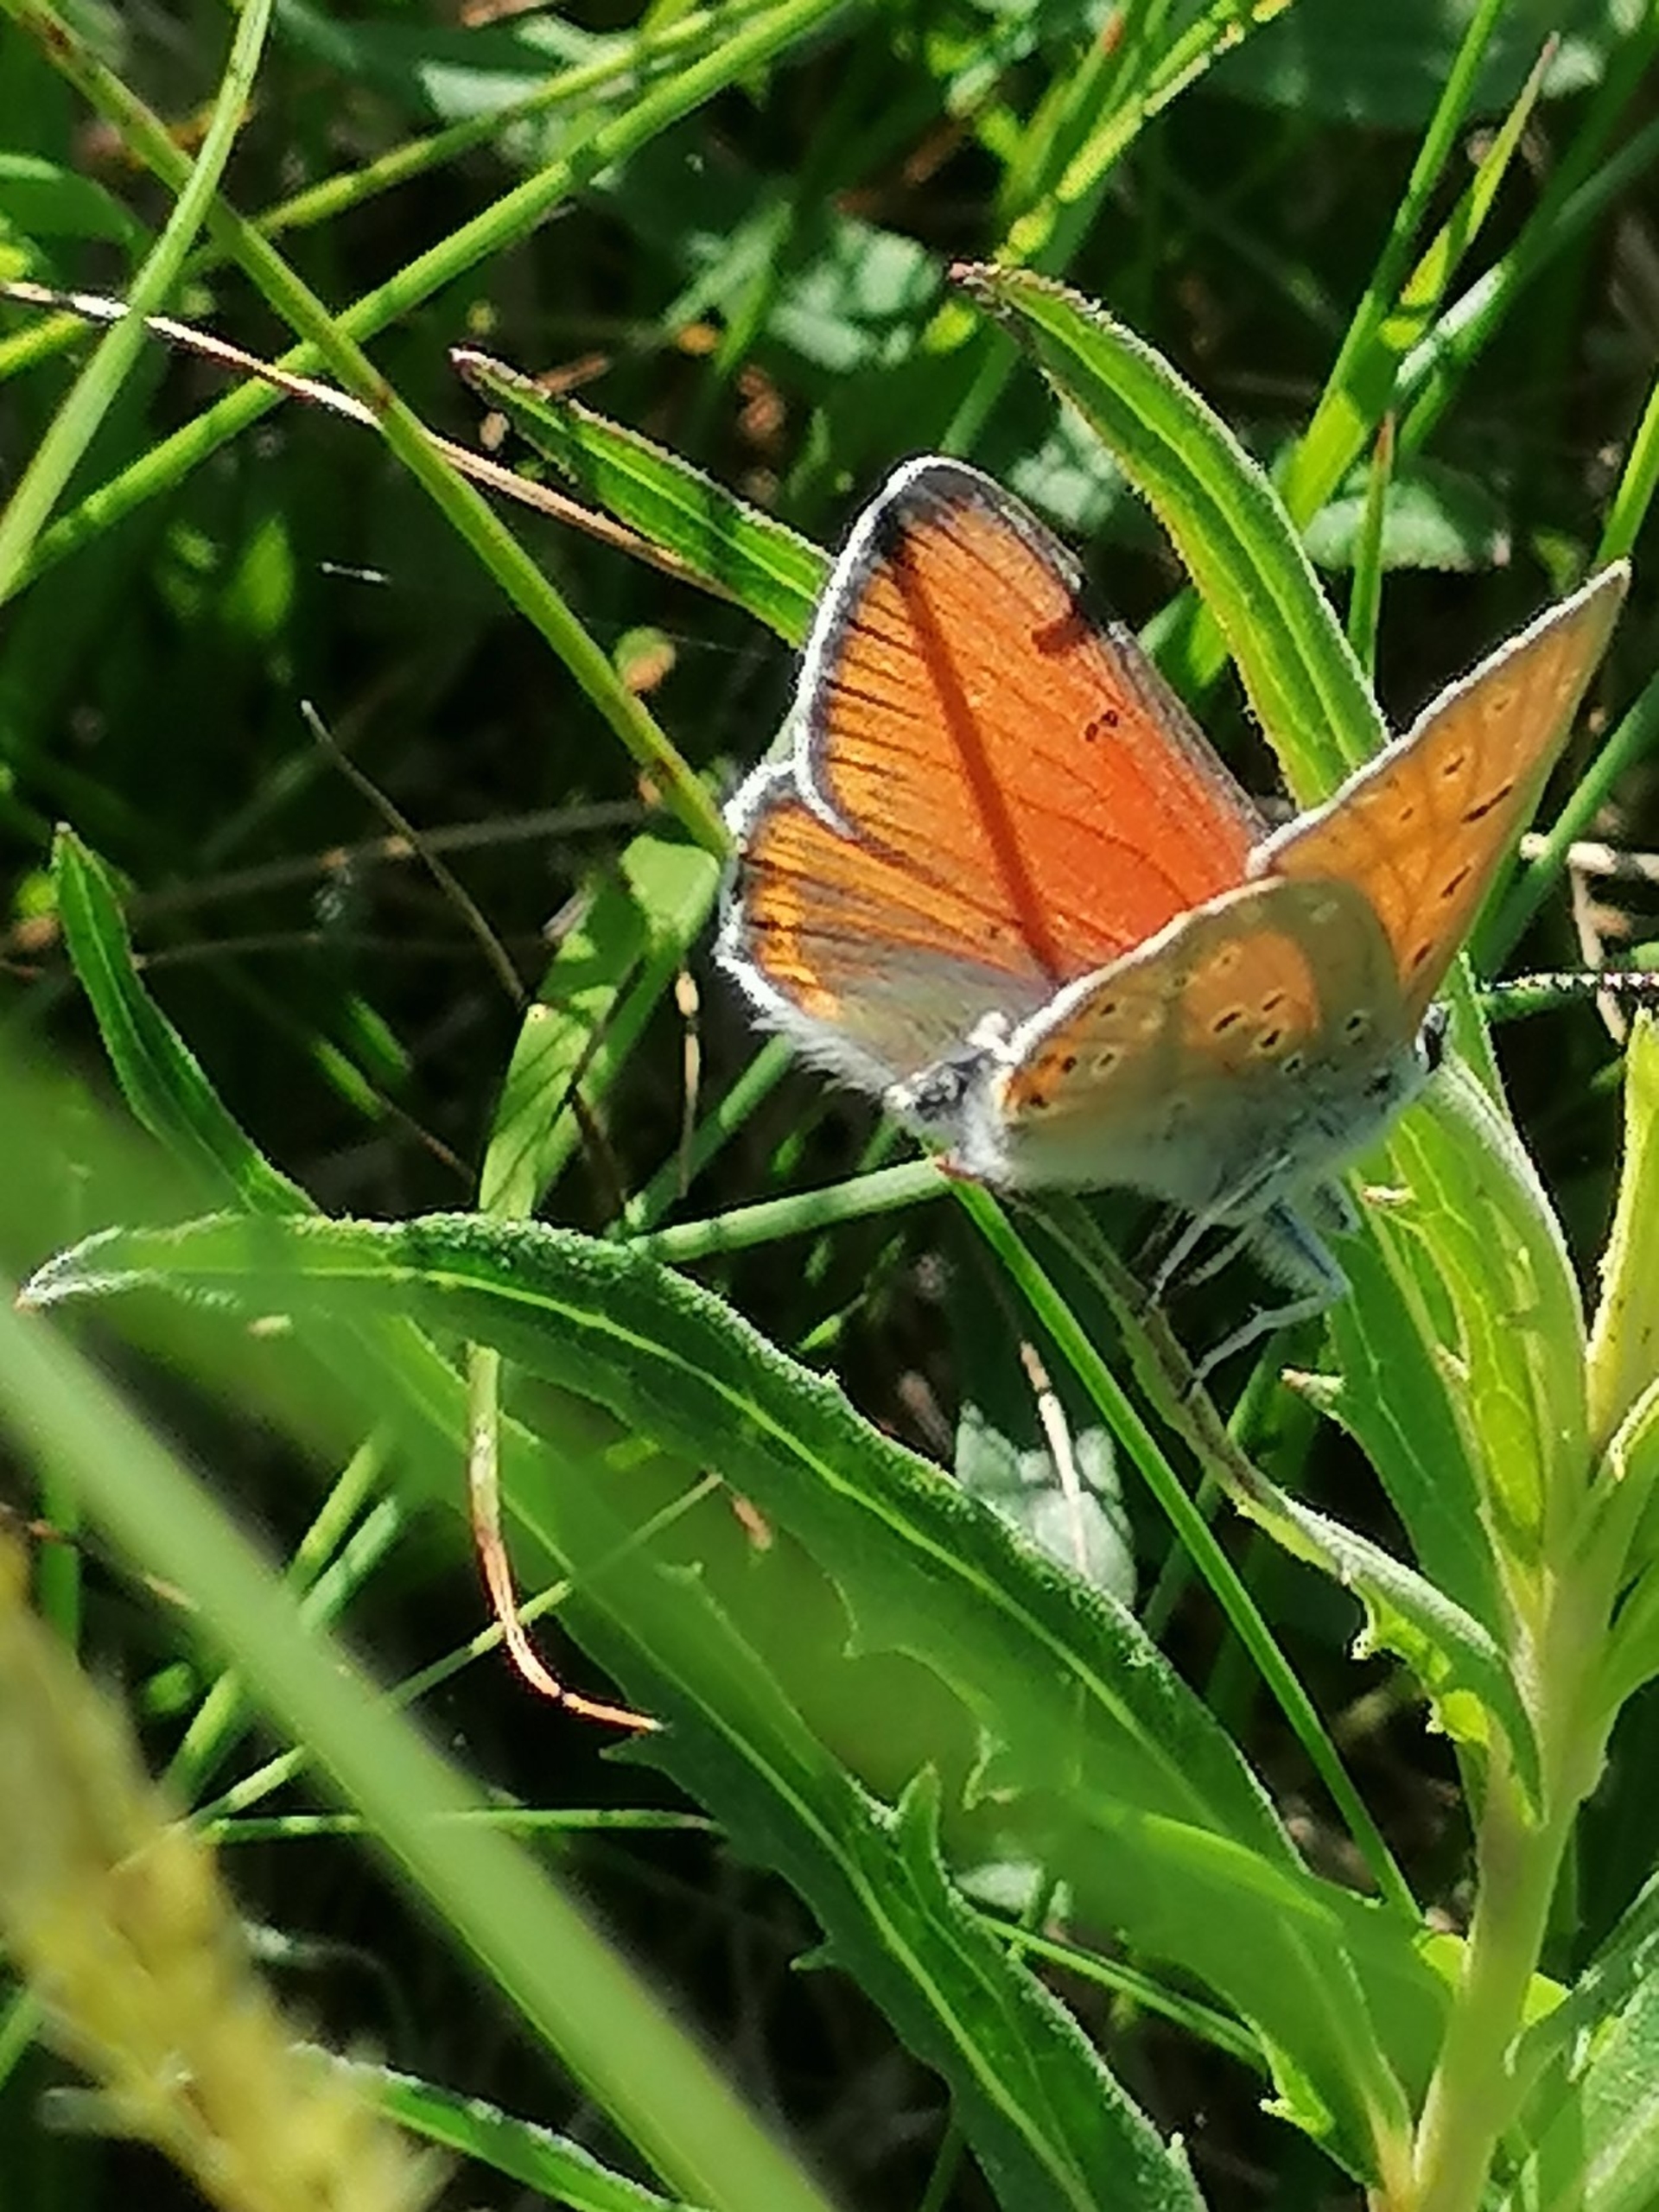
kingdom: Animalia
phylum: Arthropoda
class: Insecta
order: Lepidoptera
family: Lycaenidae
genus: Palaeochrysophanus
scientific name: Palaeochrysophanus hippothoe
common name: Violetrandet ildfugl
